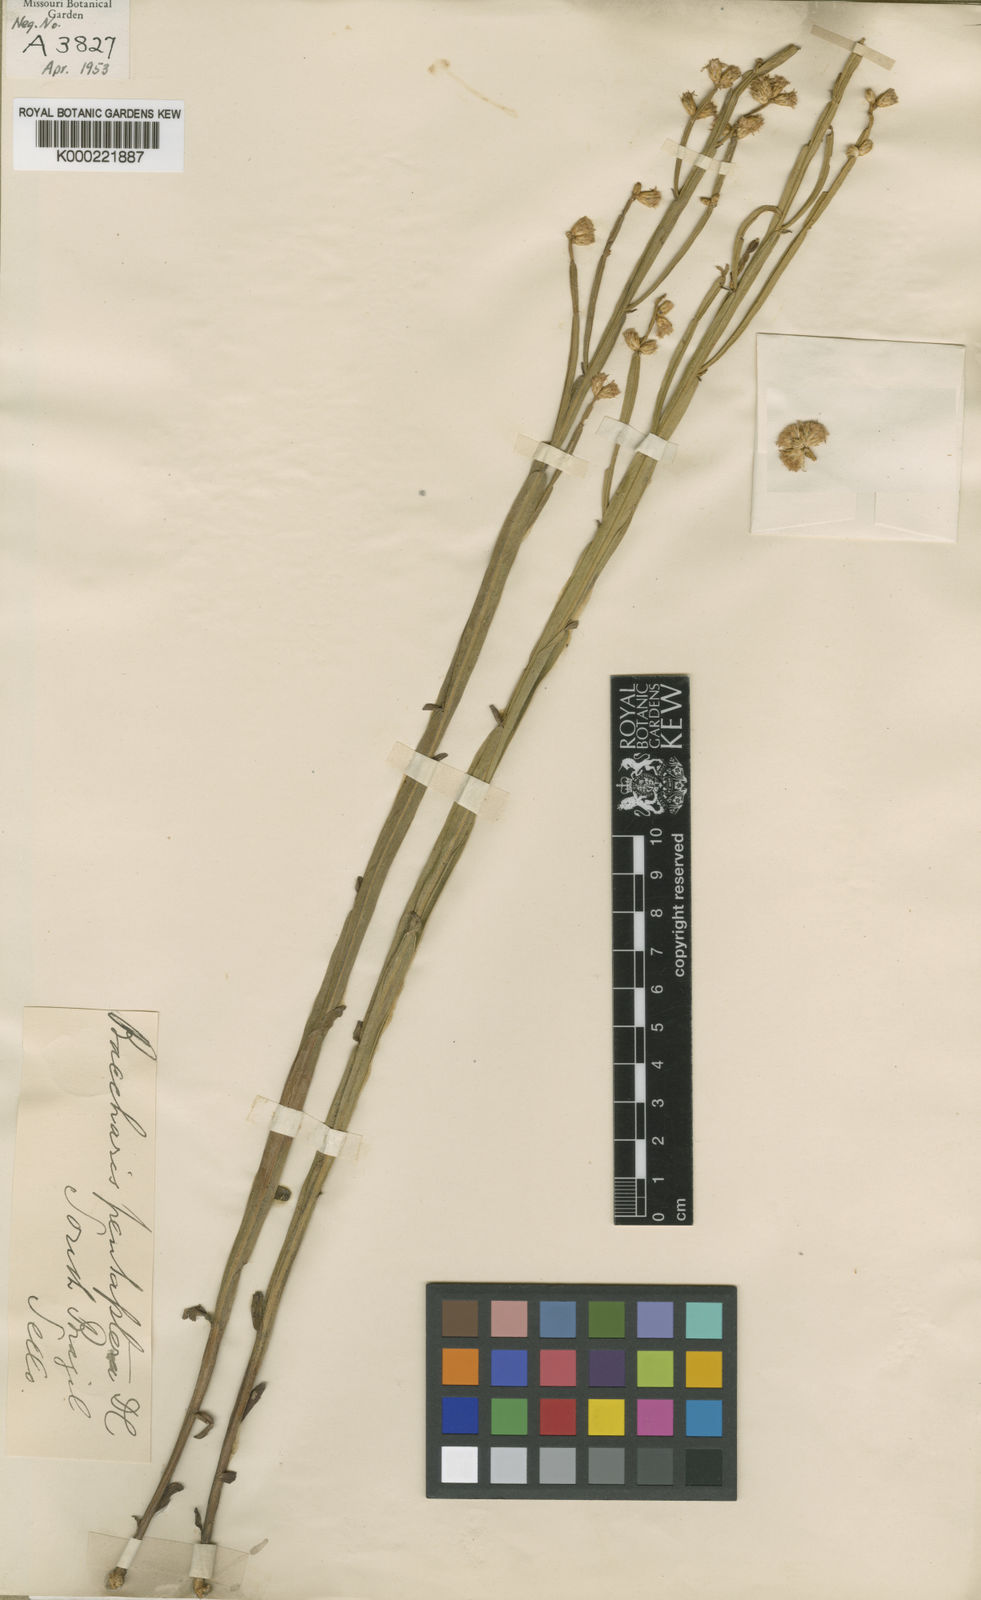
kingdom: Plantae
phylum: Tracheophyta
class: Magnoliopsida
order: Asterales
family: Asteraceae
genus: Baccharis
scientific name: Baccharis pentaptera
